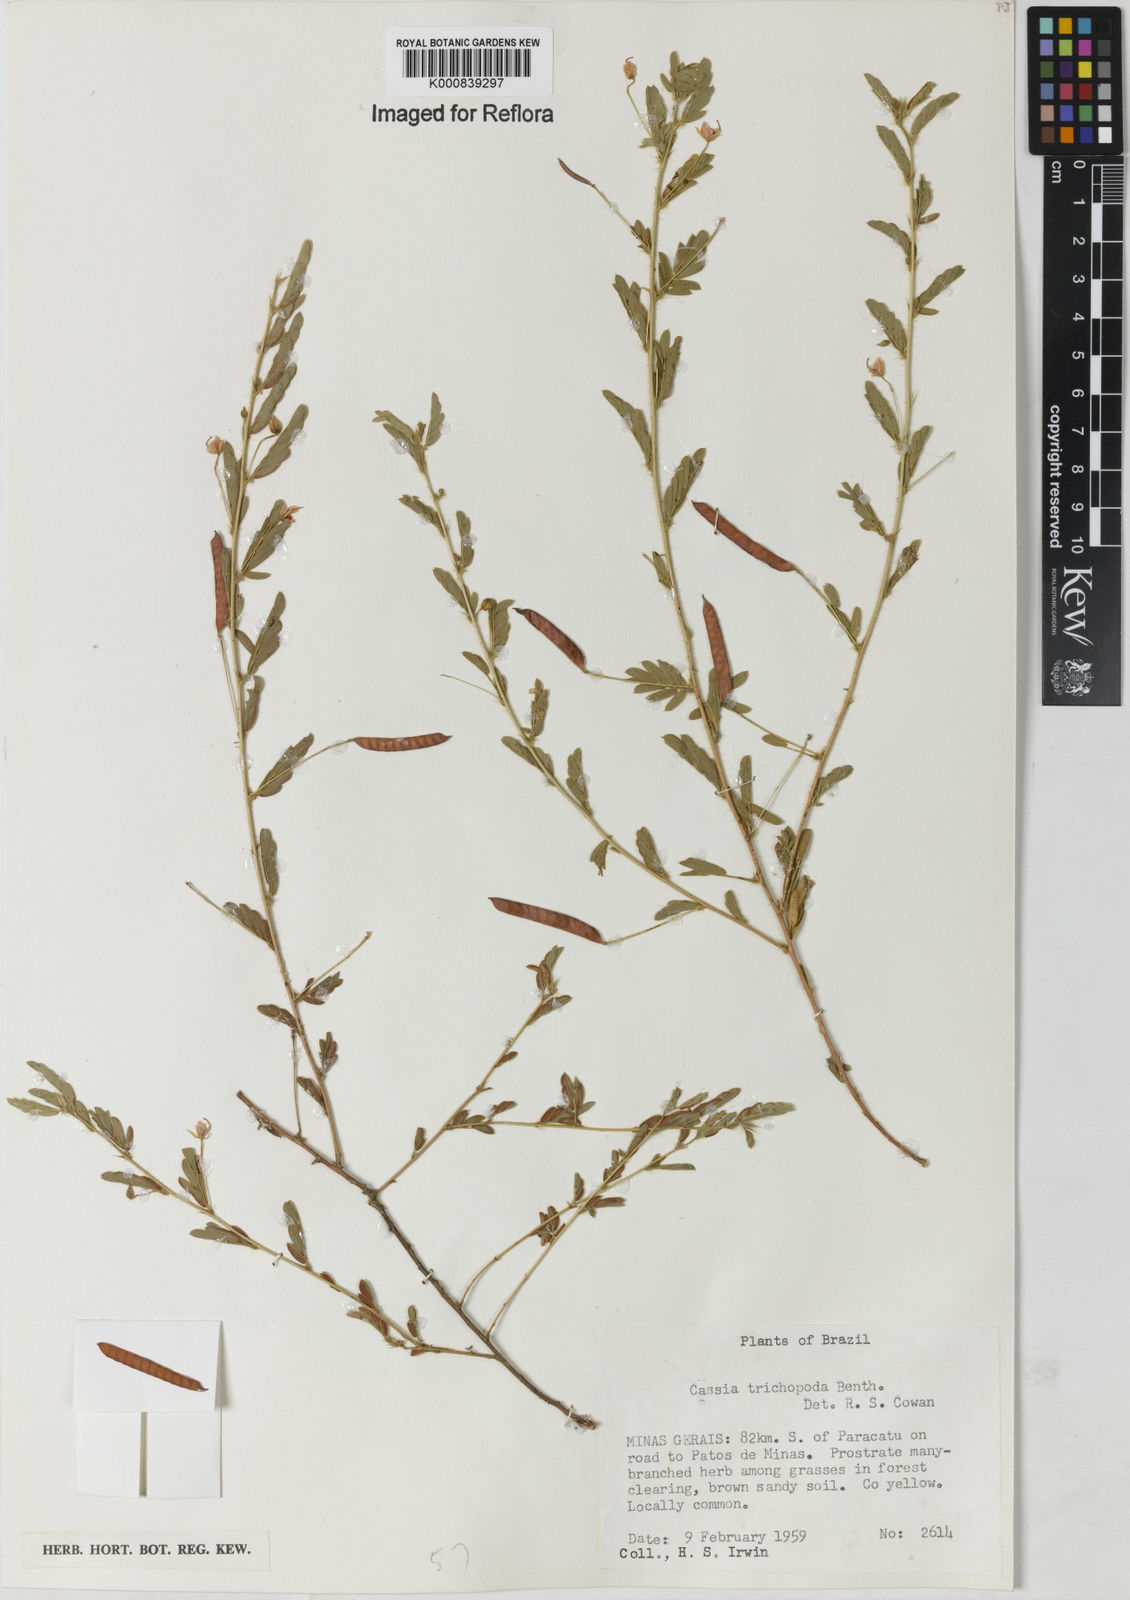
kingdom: Plantae
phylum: Tracheophyta
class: Magnoliopsida
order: Fabales
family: Fabaceae
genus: Chamaecrista
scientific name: Chamaecrista trichopoda
